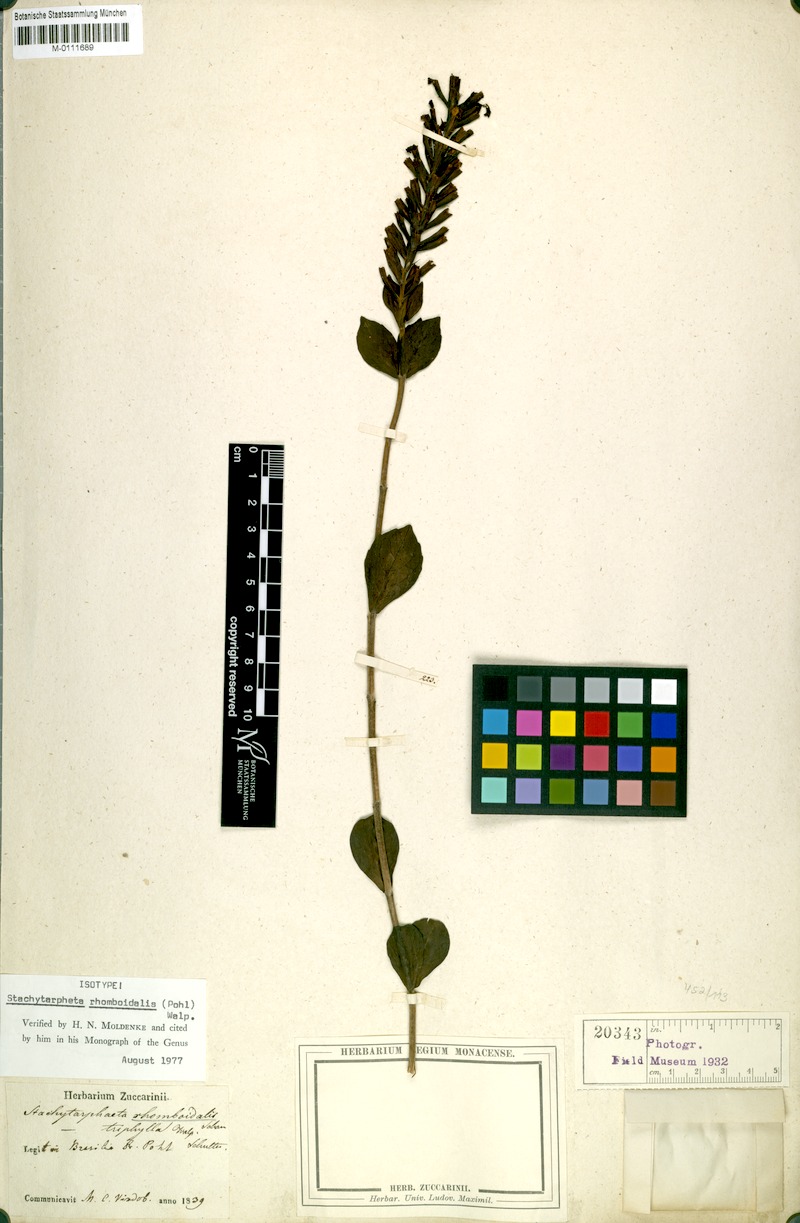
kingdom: Plantae
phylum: Tracheophyta
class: Magnoliopsida
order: Lamiales
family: Verbenaceae
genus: Stachytarpheta
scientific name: Stachytarpheta rhomboidalis
